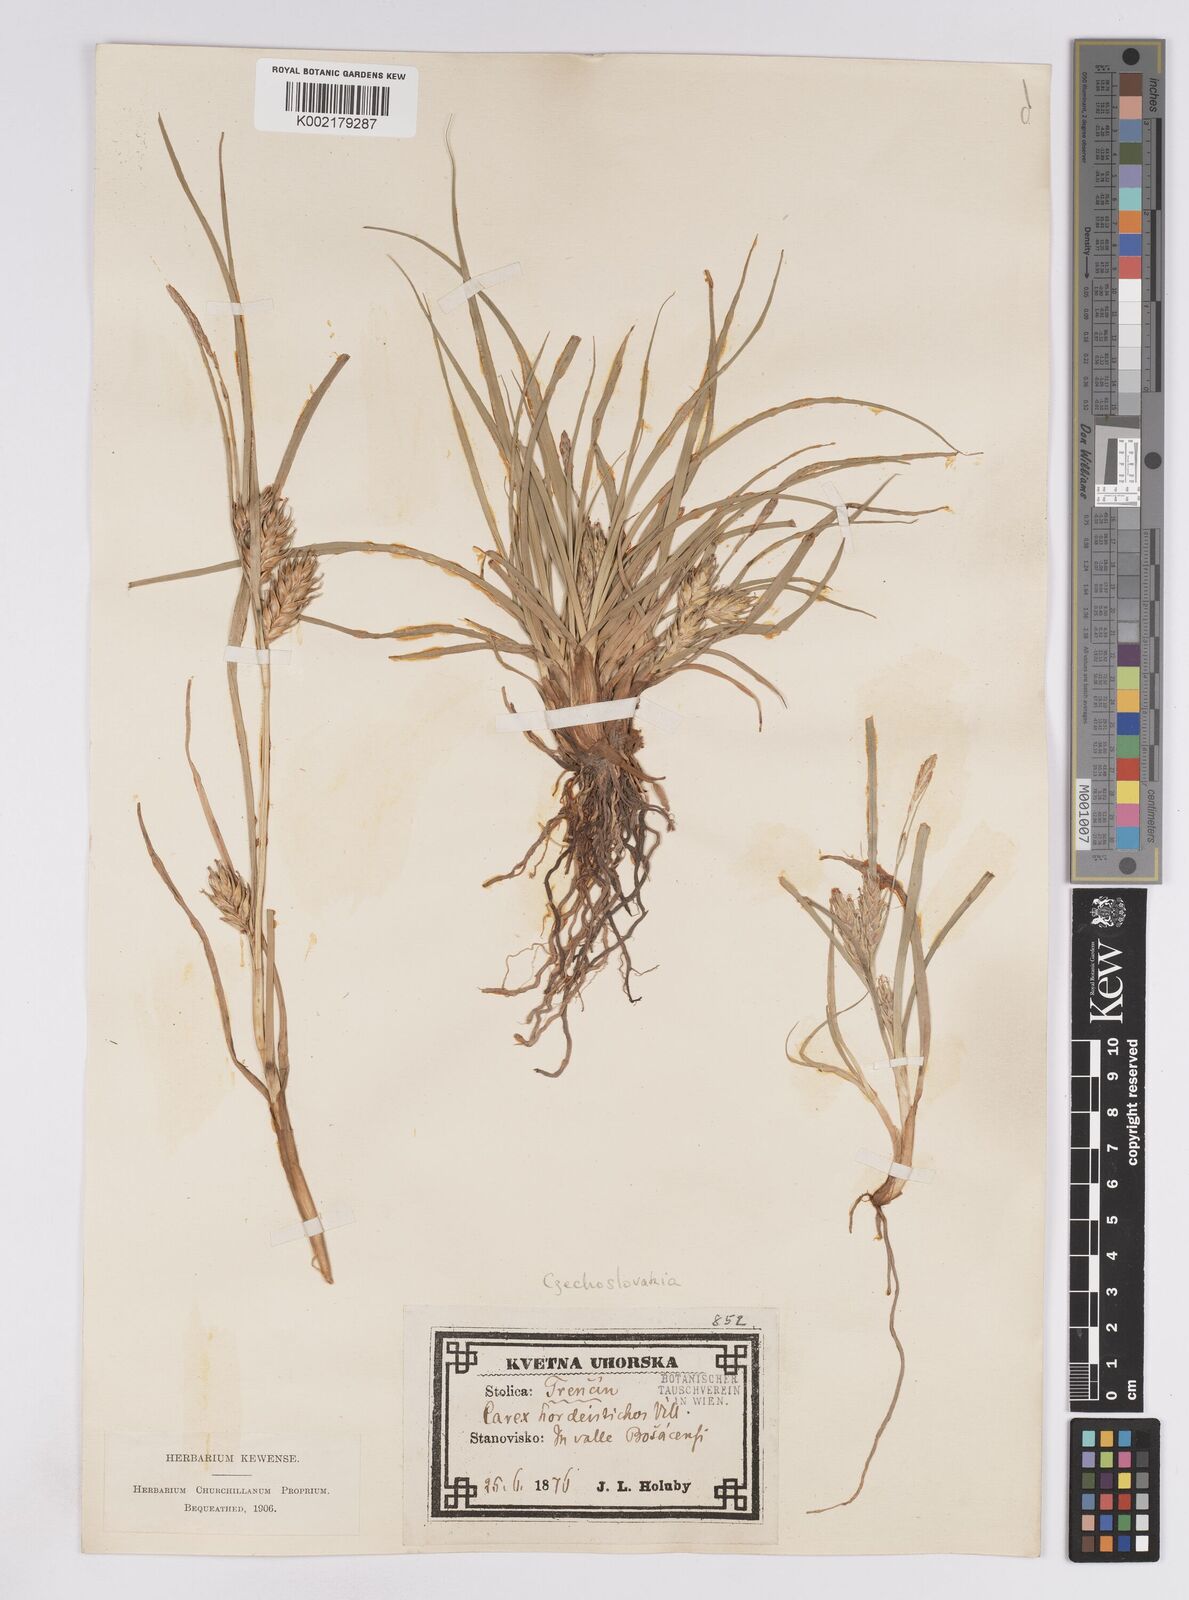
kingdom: Plantae
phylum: Tracheophyta
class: Liliopsida
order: Poales
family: Cyperaceae
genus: Carex
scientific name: Carex hordeistichos
